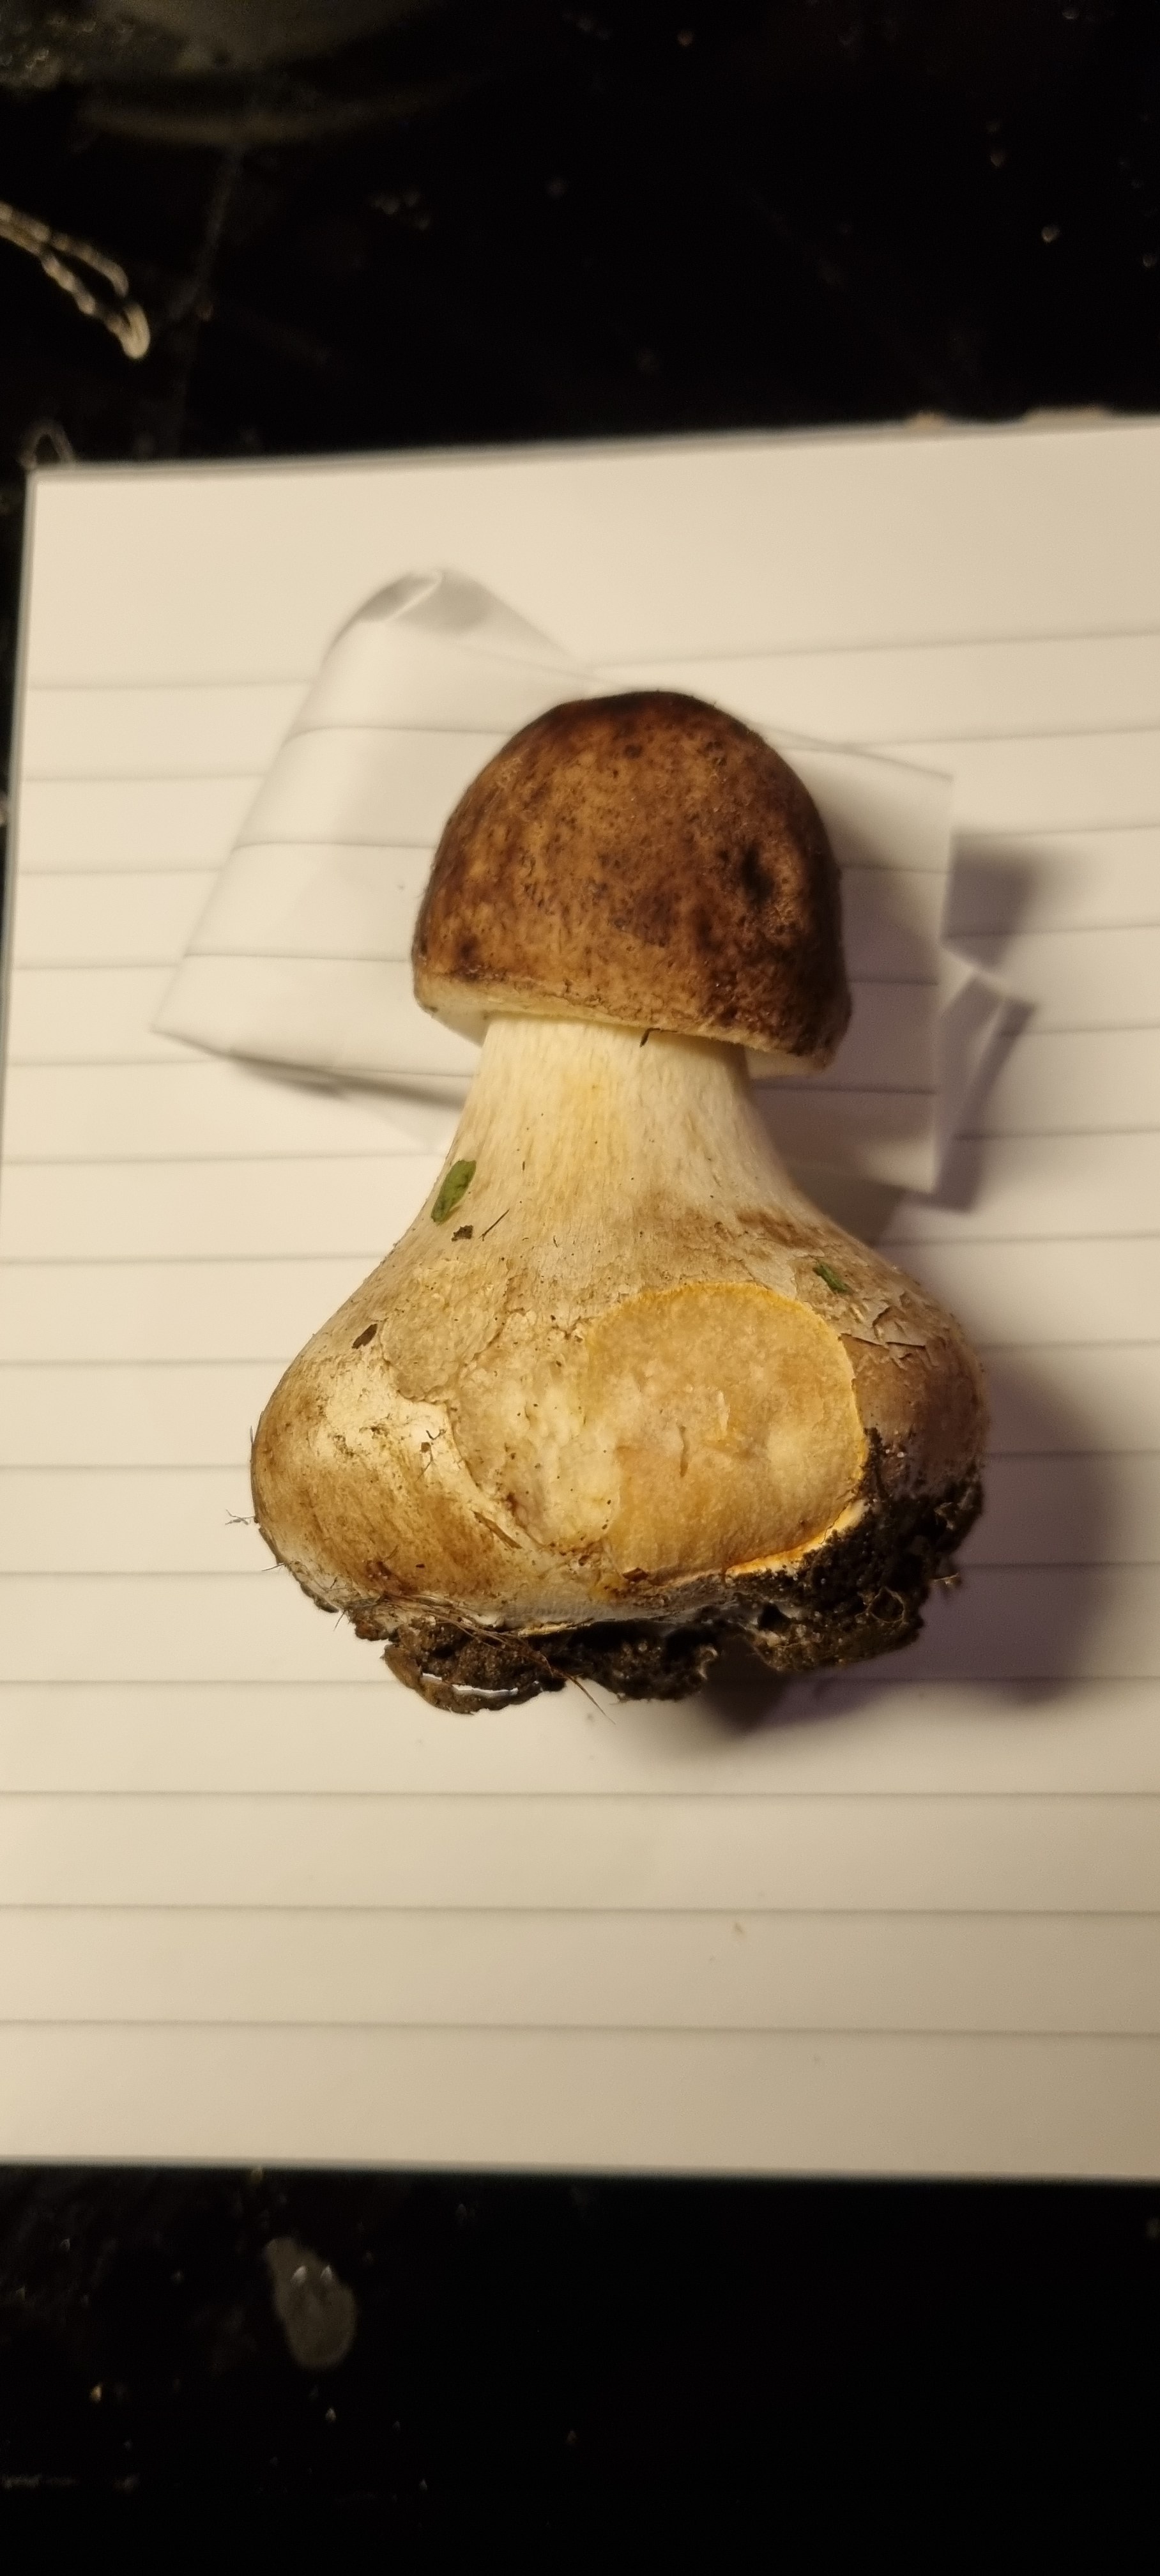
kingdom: Fungi
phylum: Basidiomycota
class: Agaricomycetes
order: Agaricales
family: Agaricaceae
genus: Chlorophyllum
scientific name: Chlorophyllum
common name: rabarberhat
